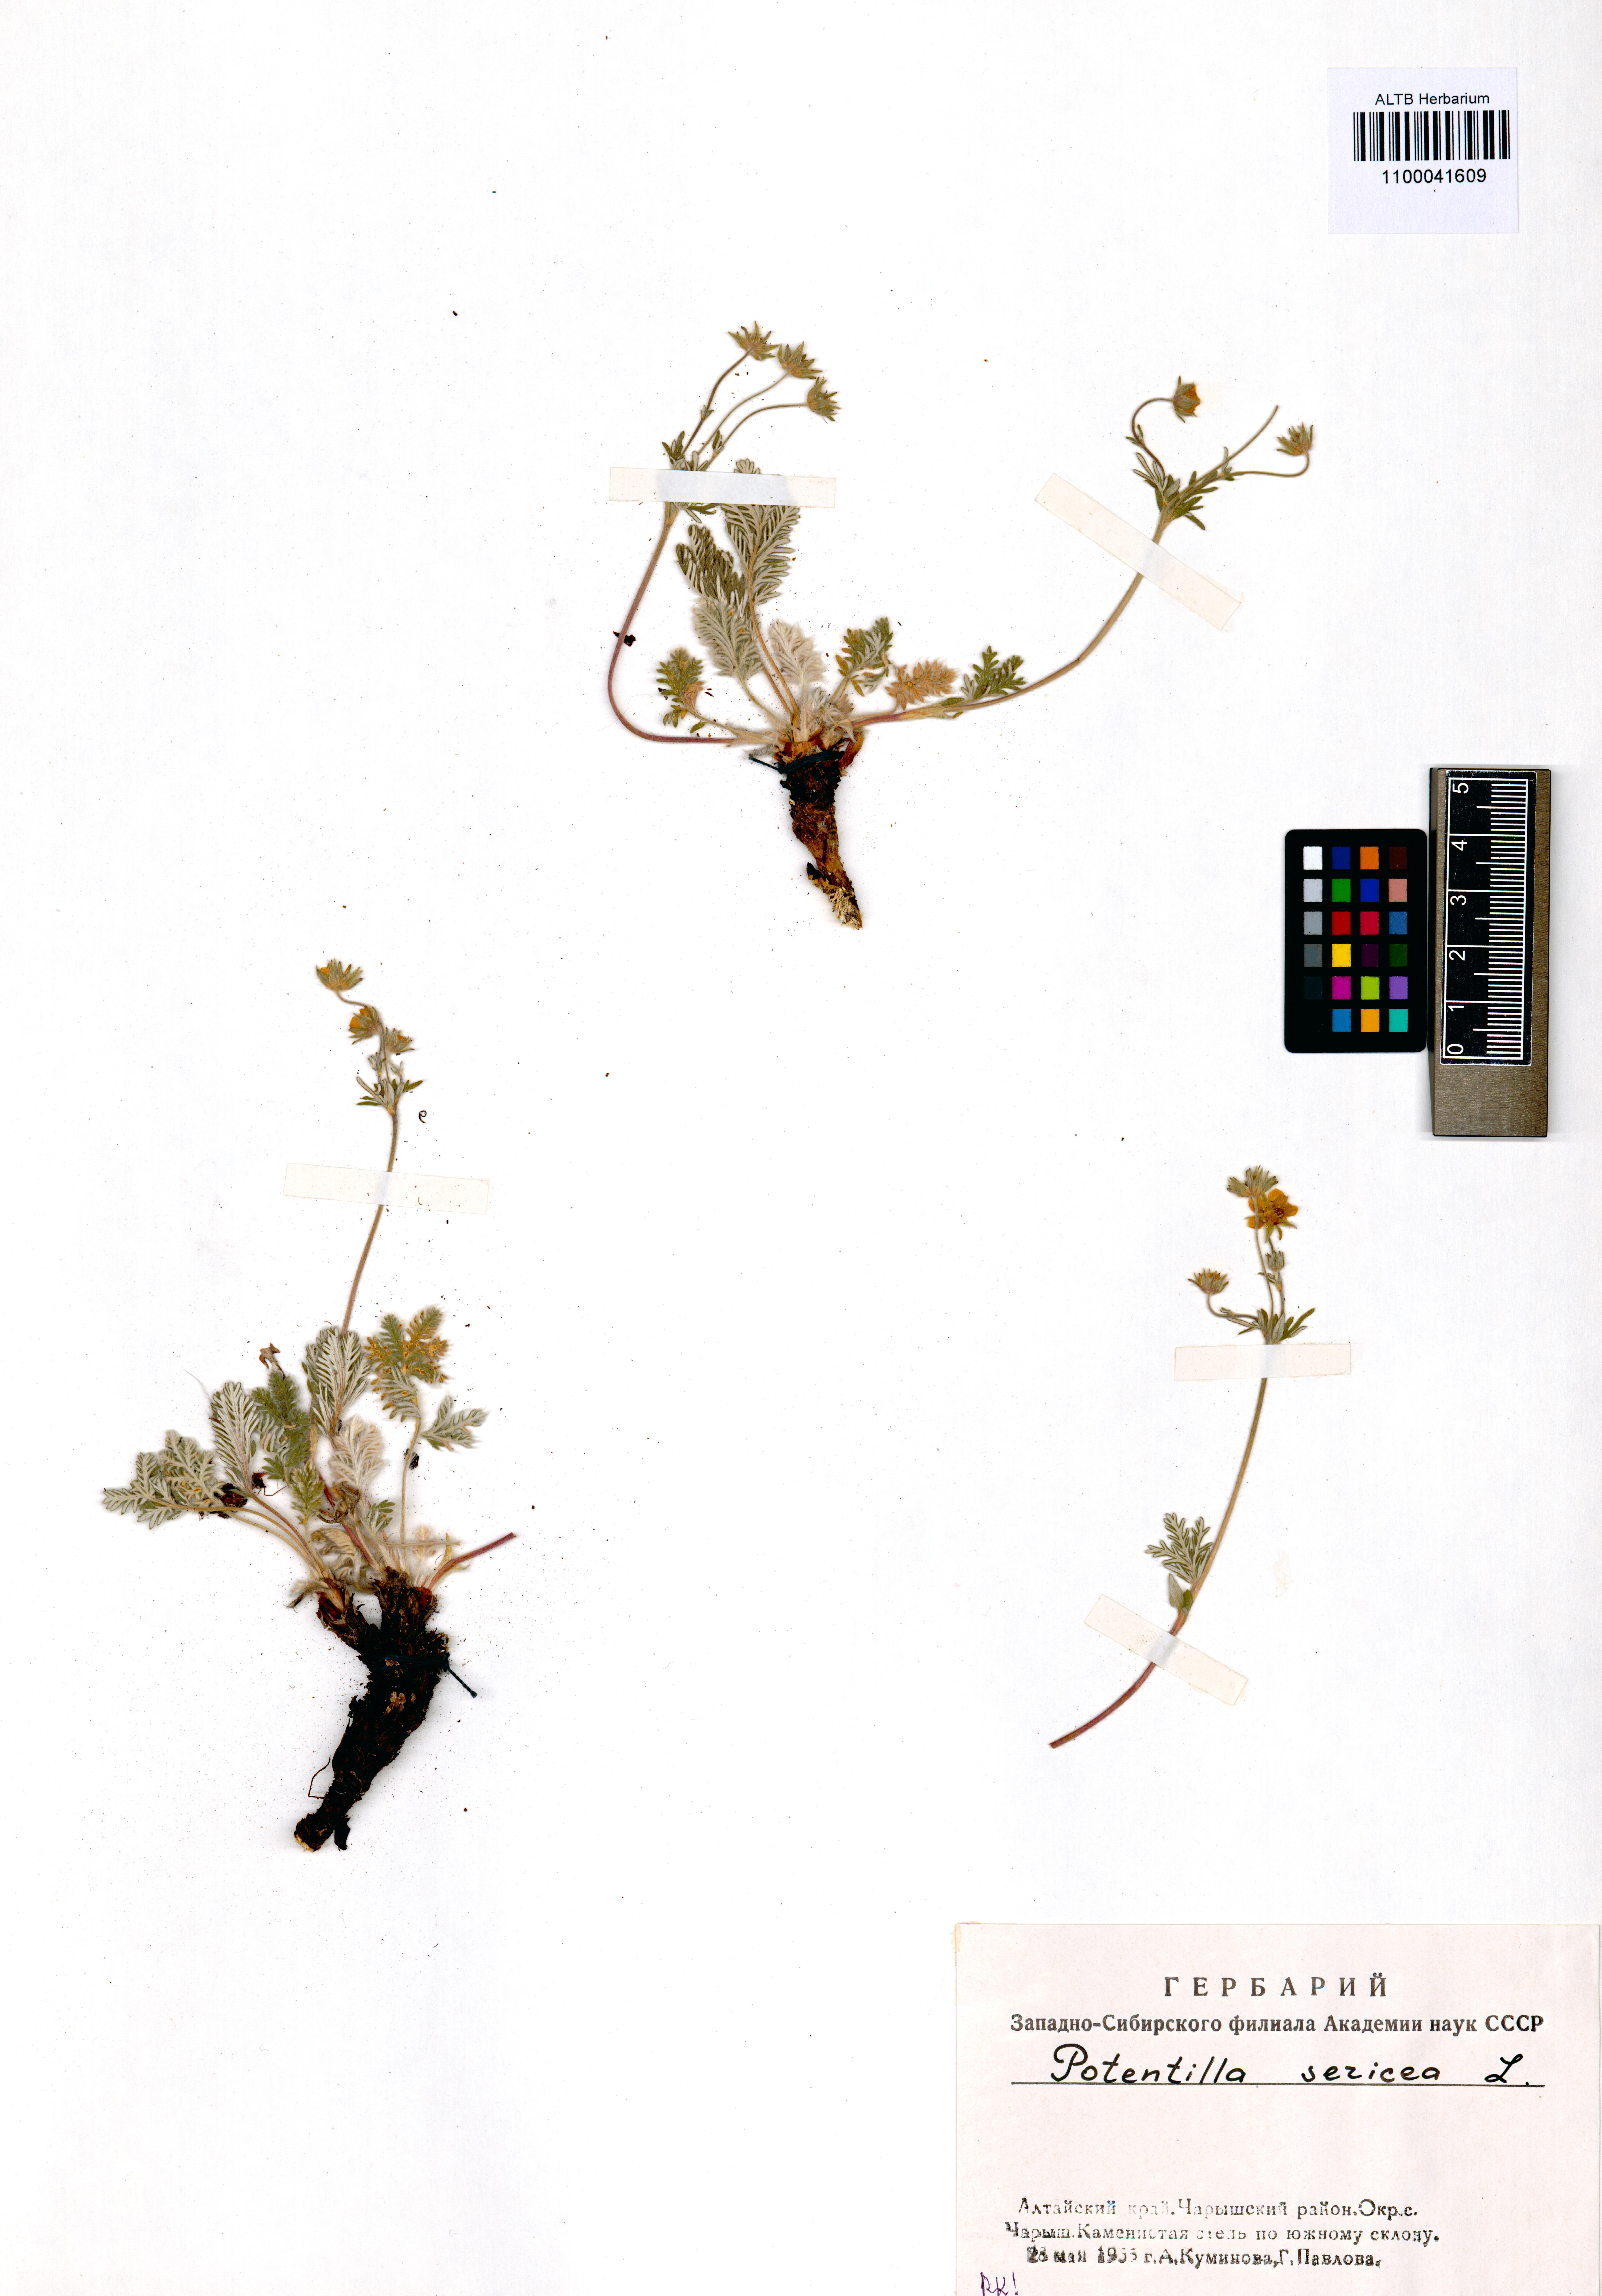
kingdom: Plantae
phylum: Tracheophyta
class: Magnoliopsida
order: Rosales
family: Rosaceae
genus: Potentilla
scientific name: Potentilla sericea
